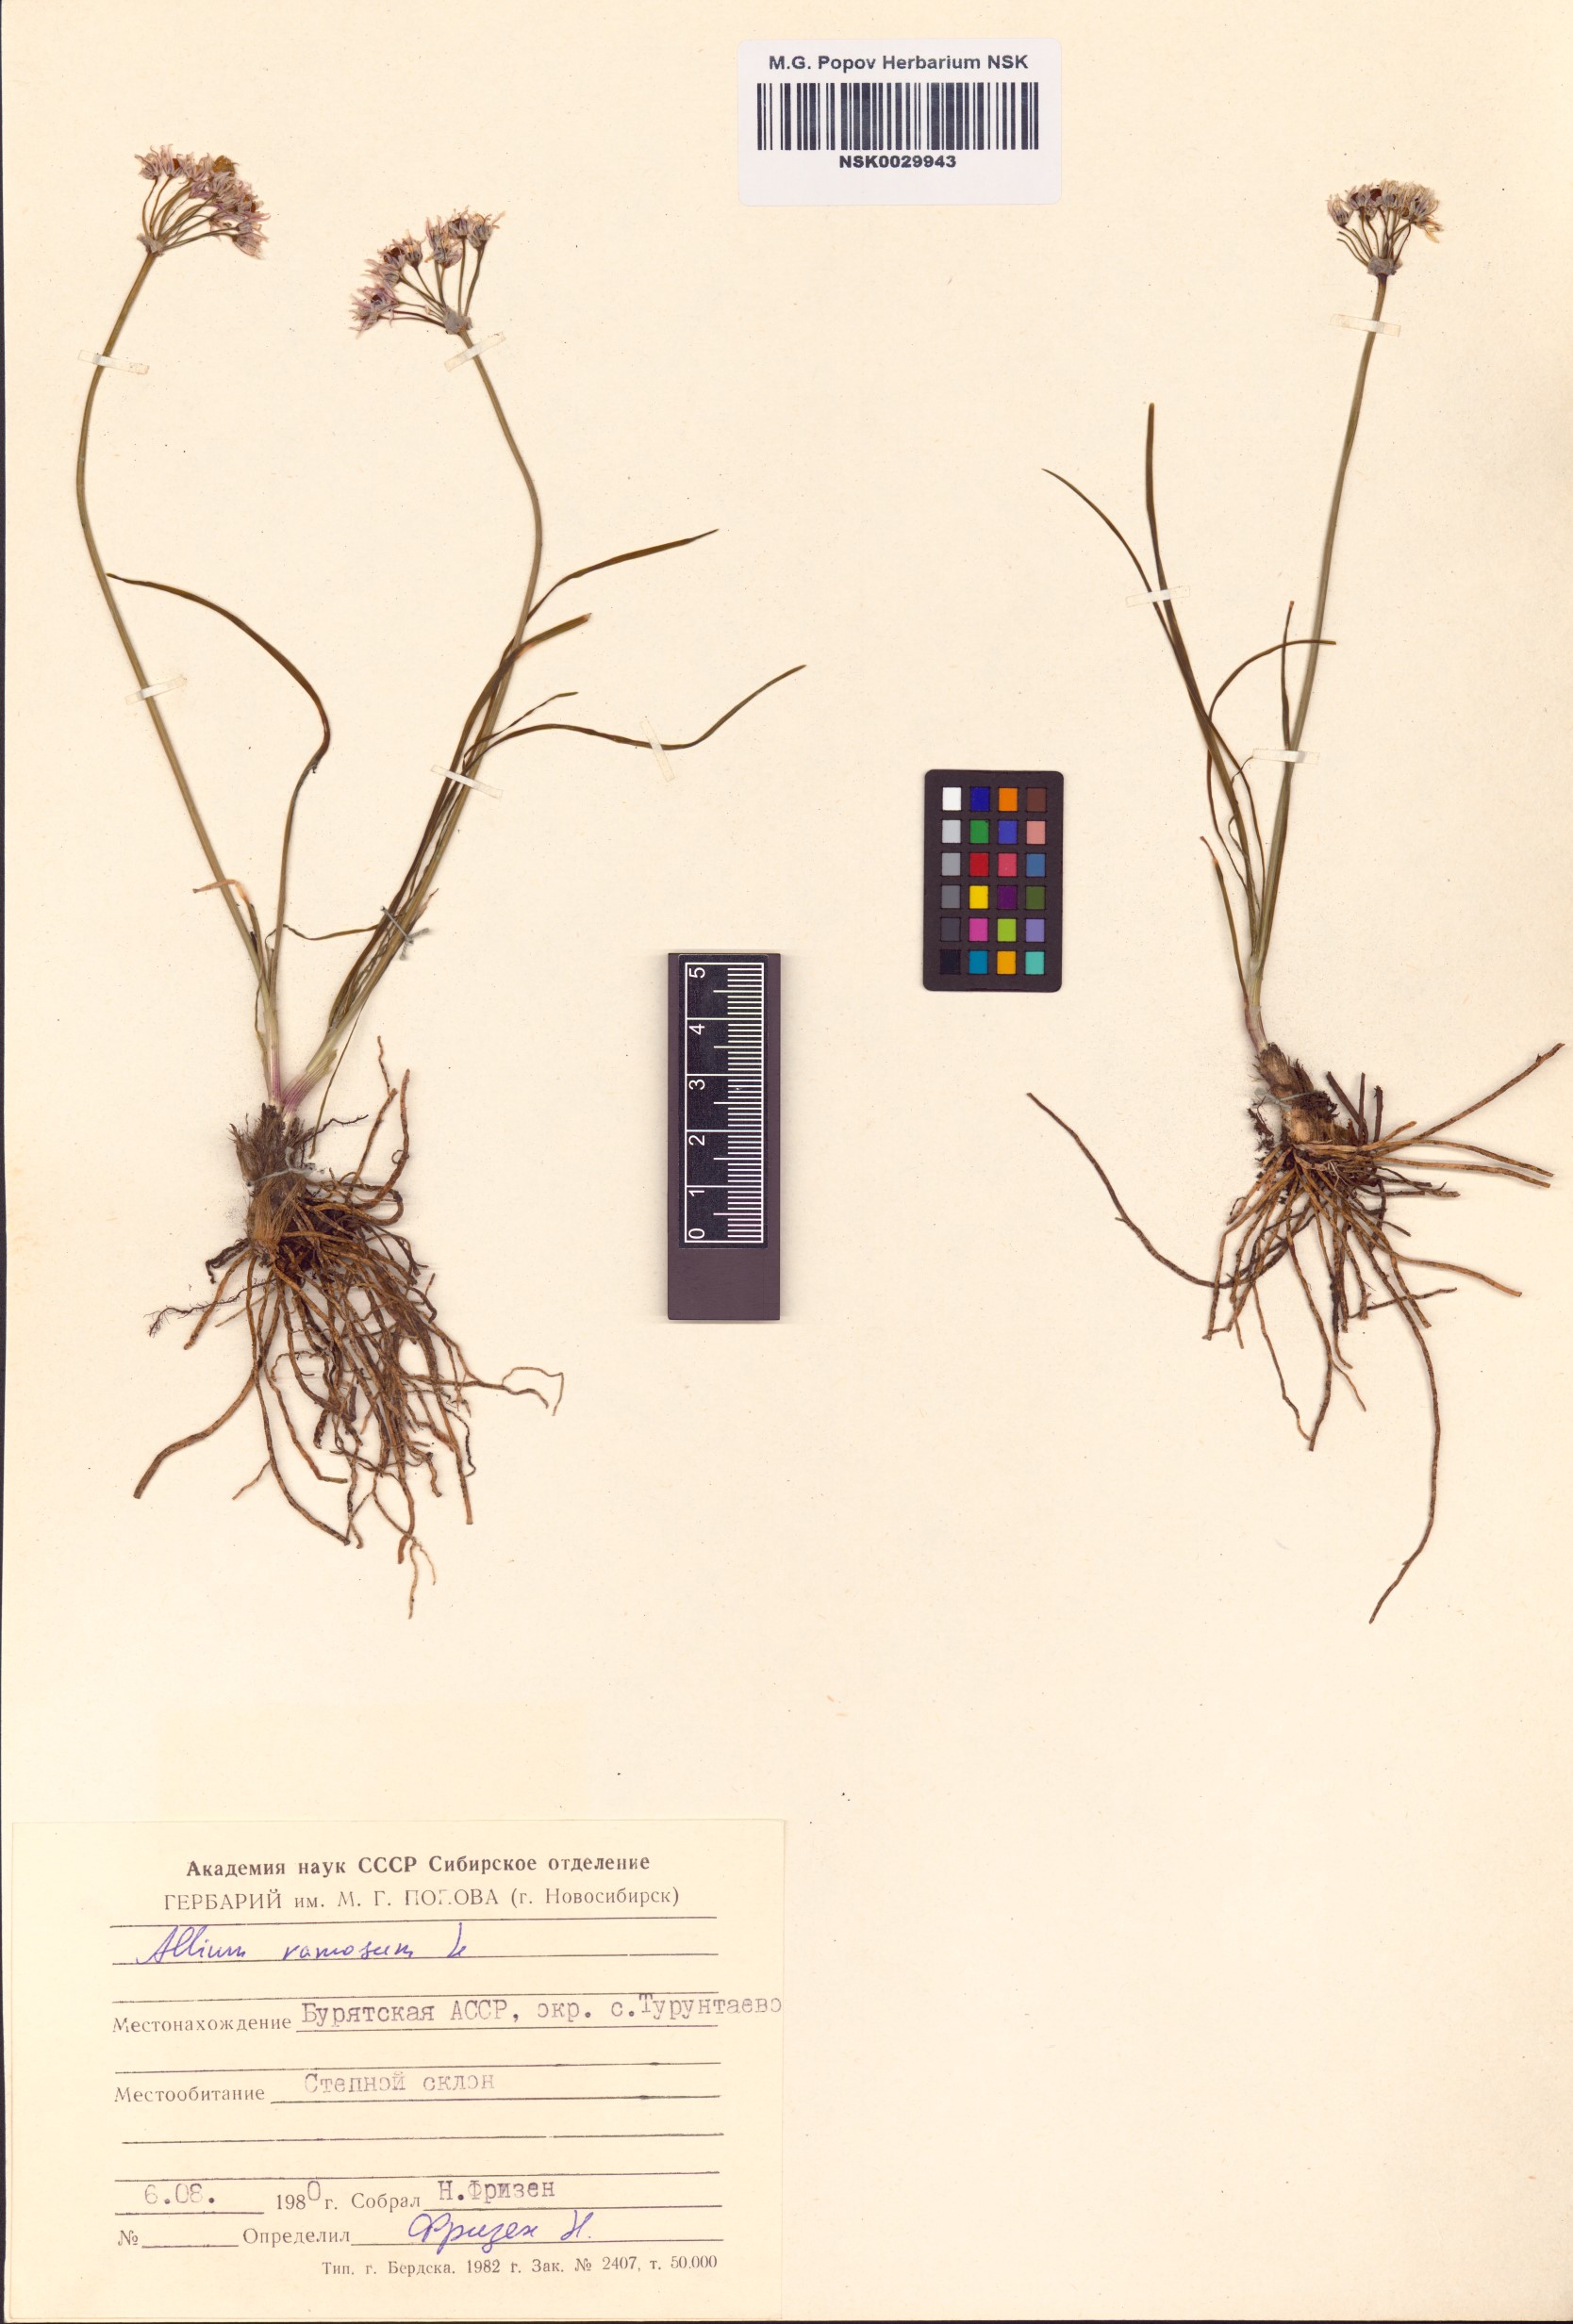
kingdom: Plantae
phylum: Tracheophyta
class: Liliopsida
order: Asparagales
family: Amaryllidaceae
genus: Allium
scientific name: Allium ramosum
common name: Fragrant garlic
